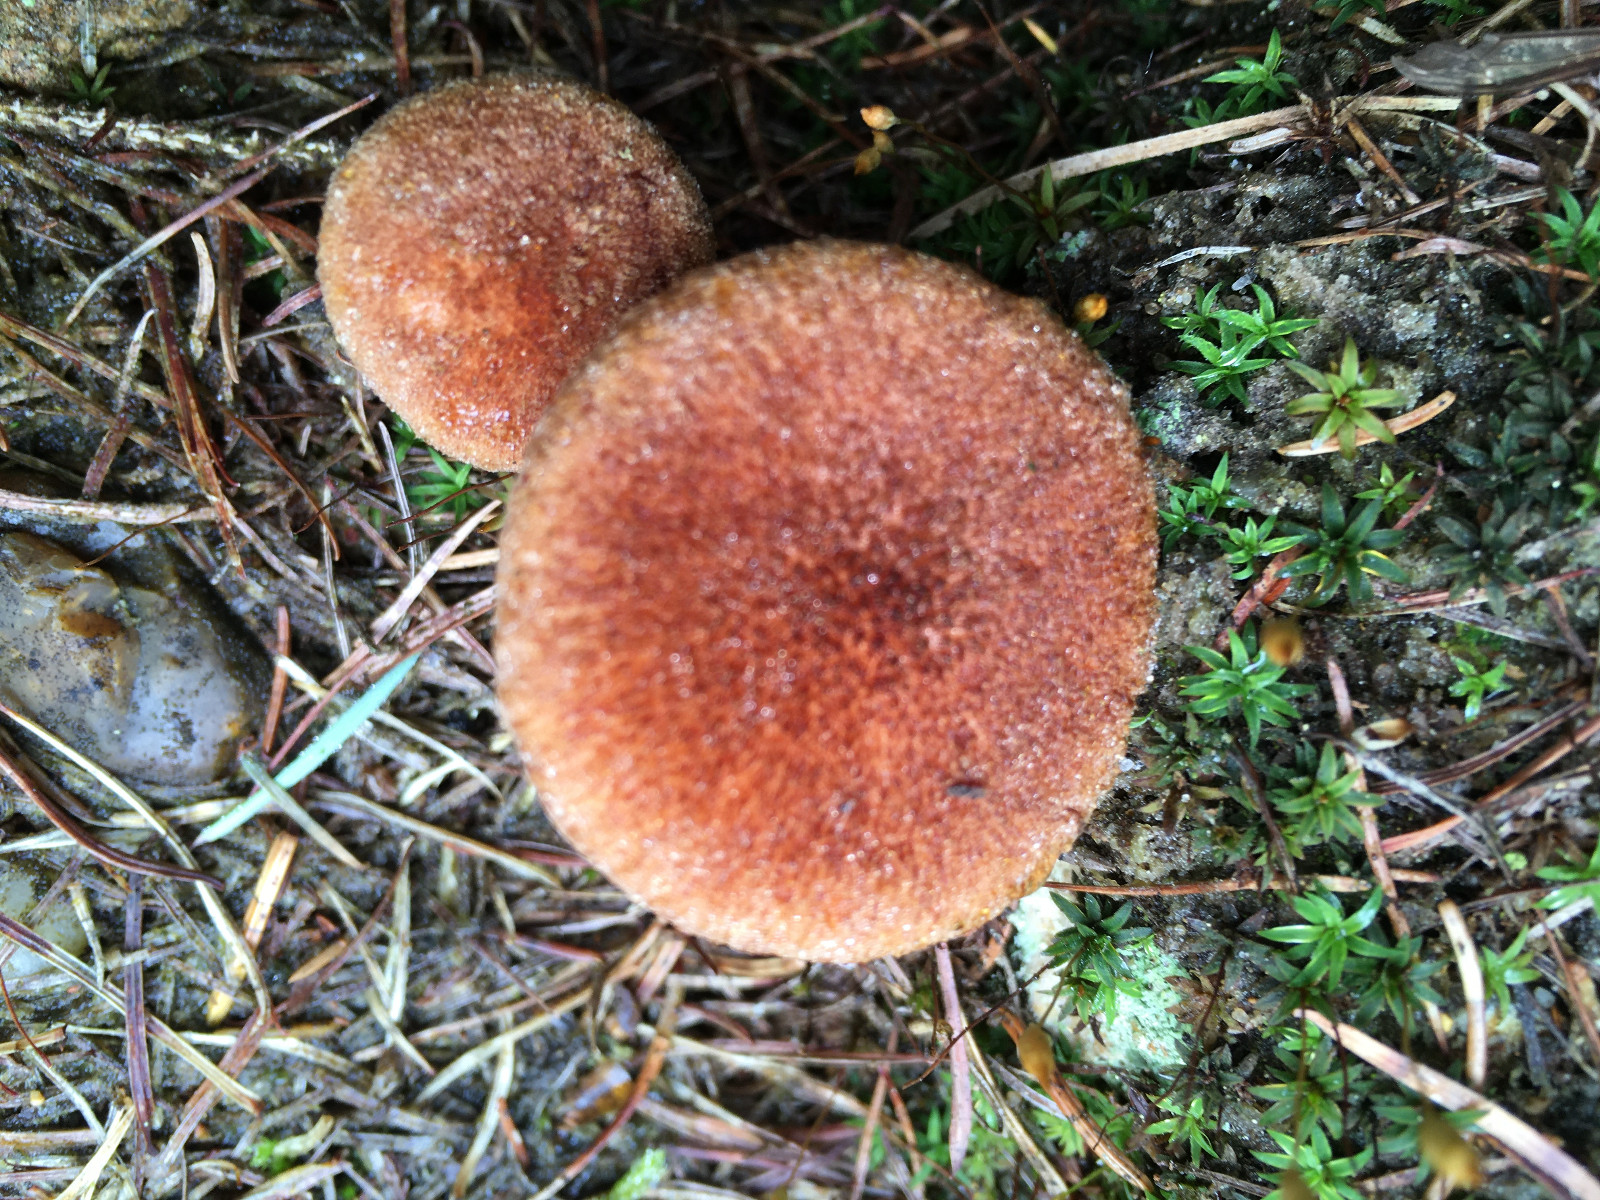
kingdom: Fungi
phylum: Basidiomycota
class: Agaricomycetes
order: Boletales
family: Suillaceae
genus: Suillus
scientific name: Suillus cavipes
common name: hulstokket slimrørhat
